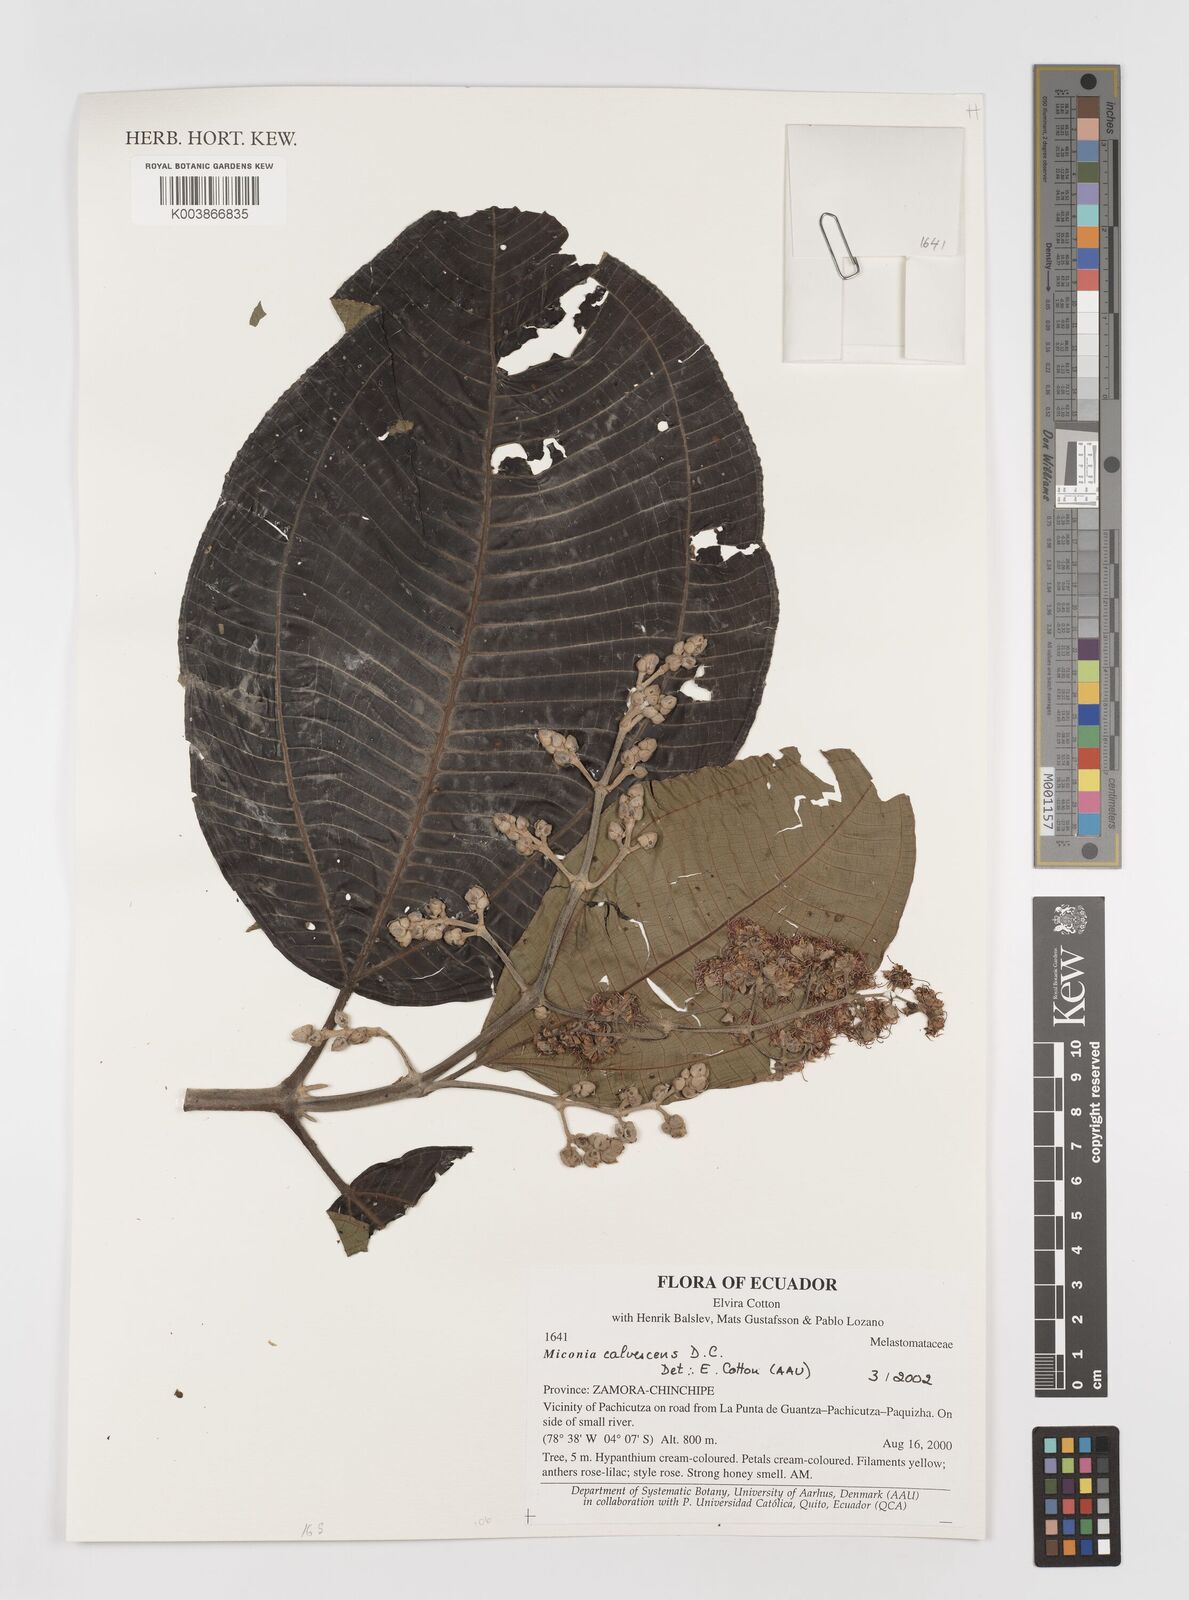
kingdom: Plantae
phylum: Tracheophyta
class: Magnoliopsida
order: Myrtales
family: Melastomataceae
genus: Miconia
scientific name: Miconia calvescens
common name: Purple plague
